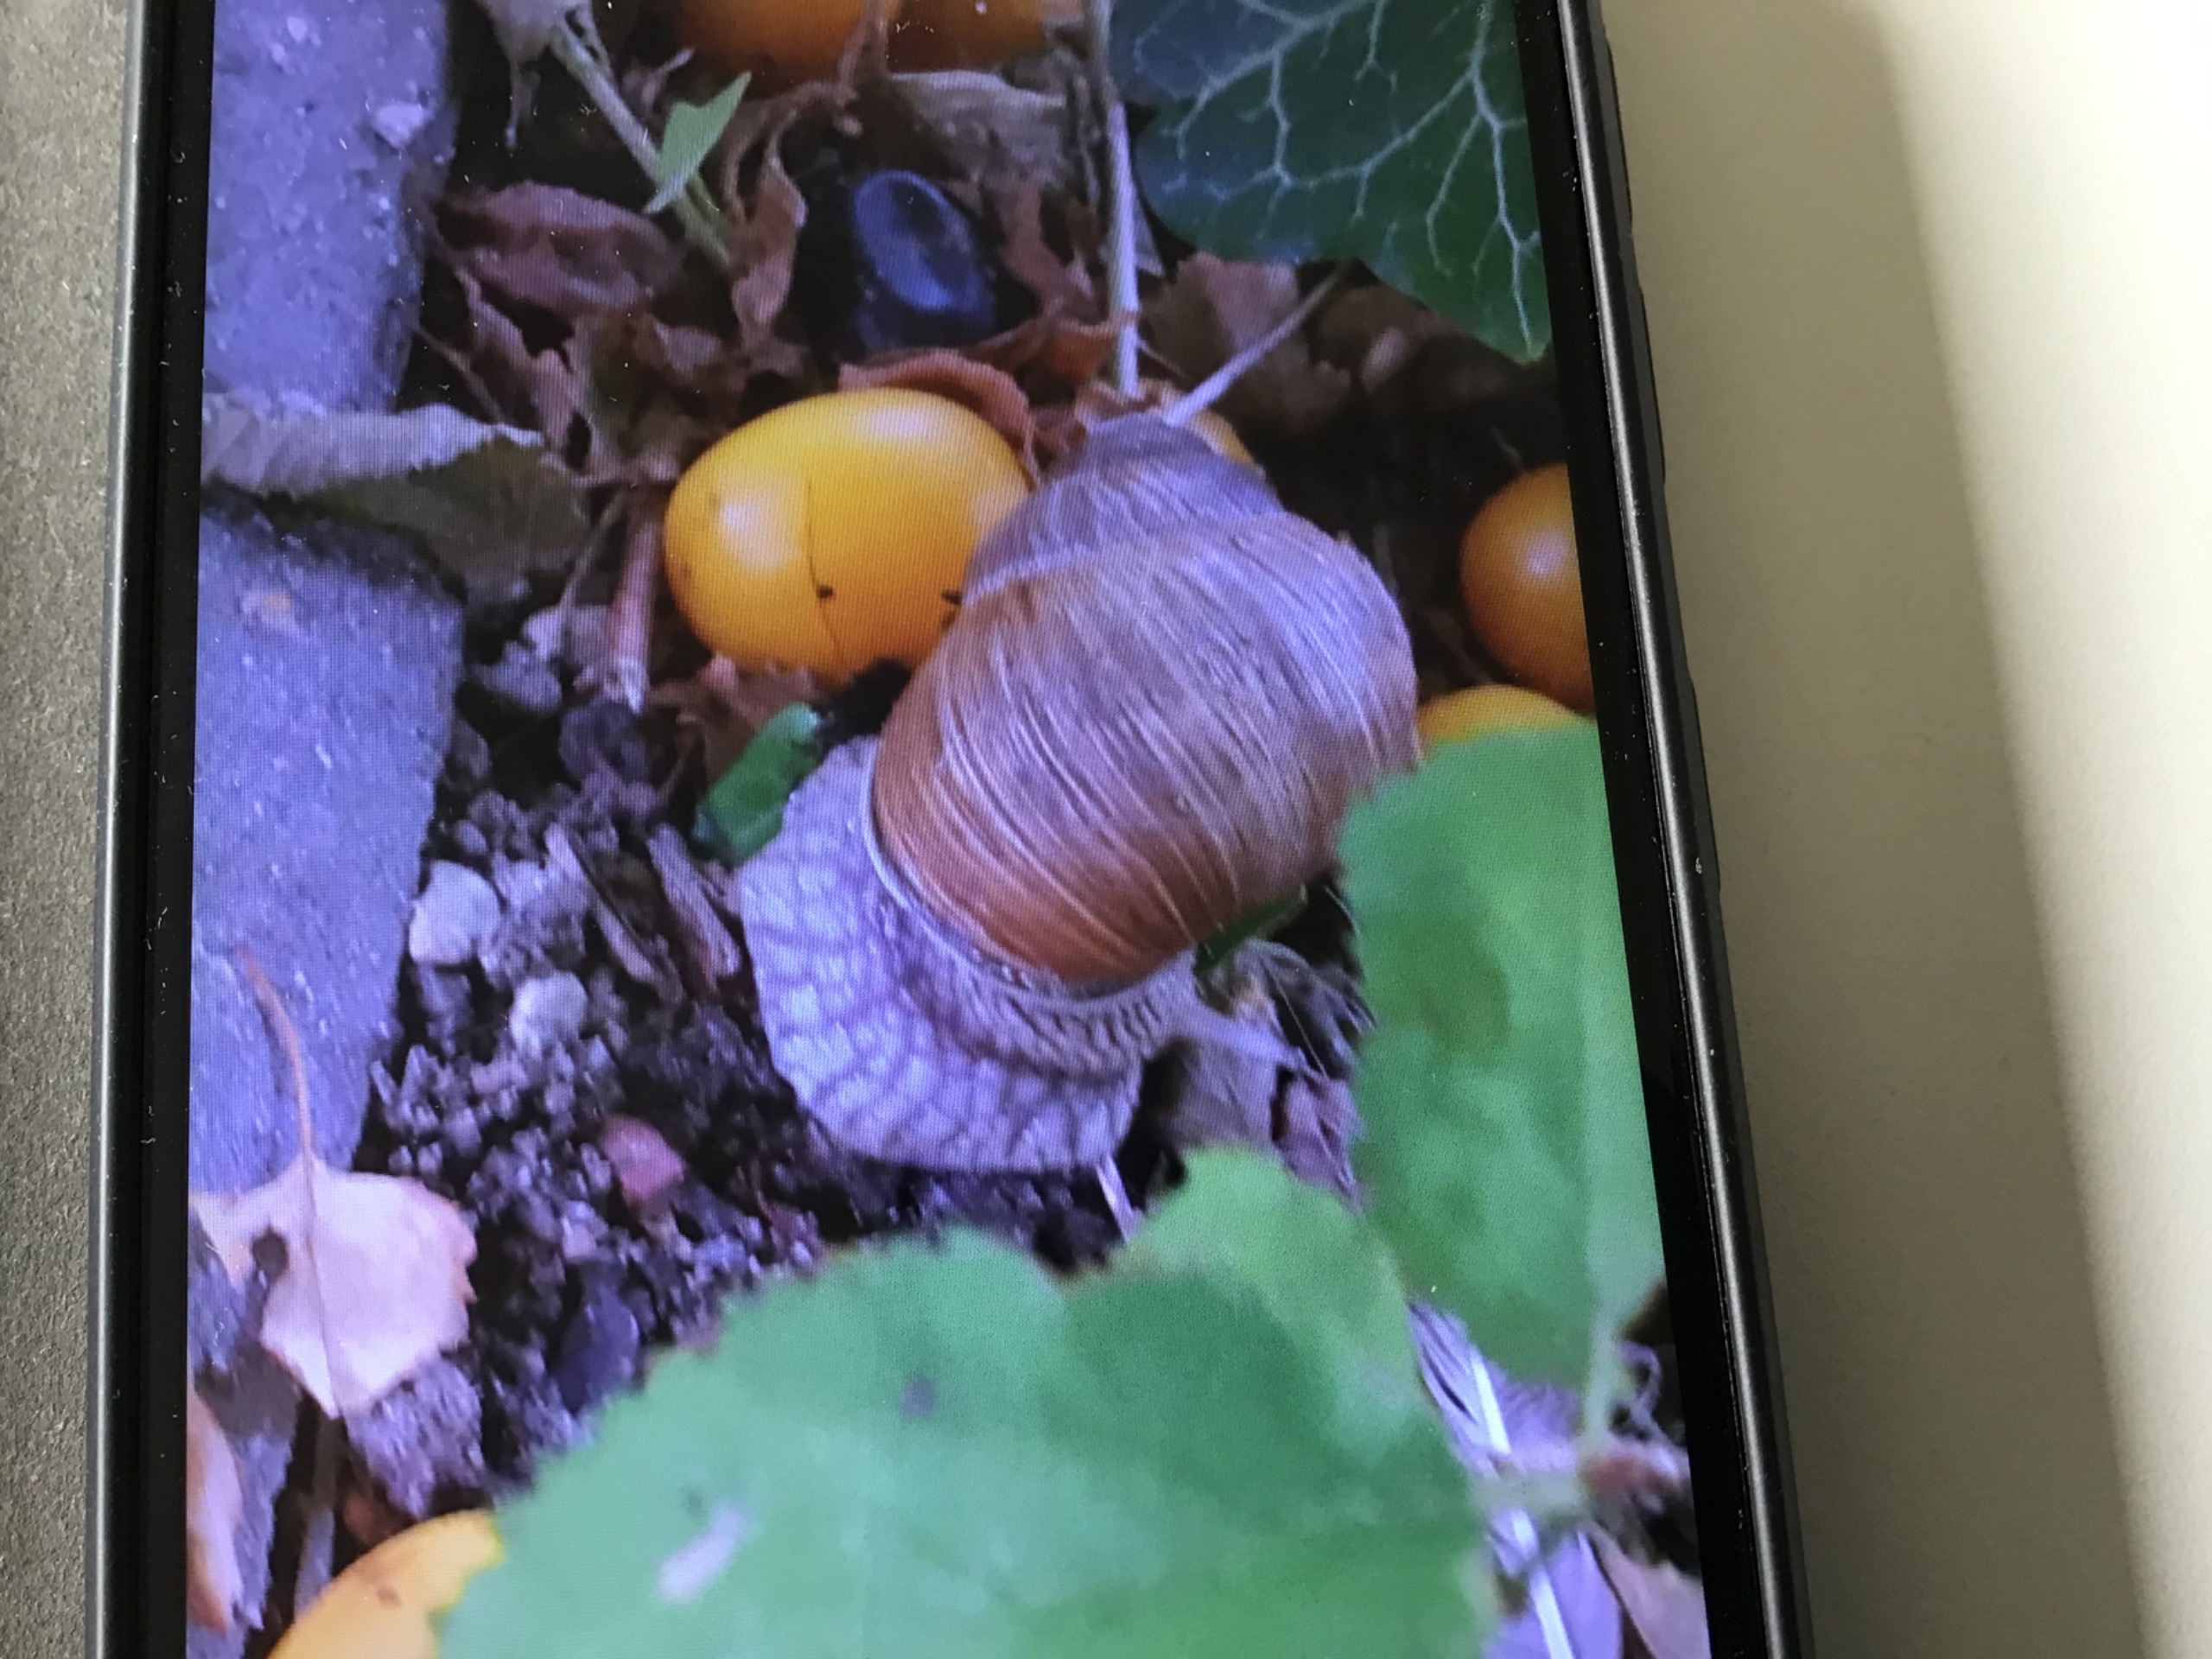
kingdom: Animalia
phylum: Mollusca
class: Gastropoda
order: Stylommatophora
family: Helicidae
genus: Helix
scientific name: Helix pomatia
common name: Vinbjergsnegl
